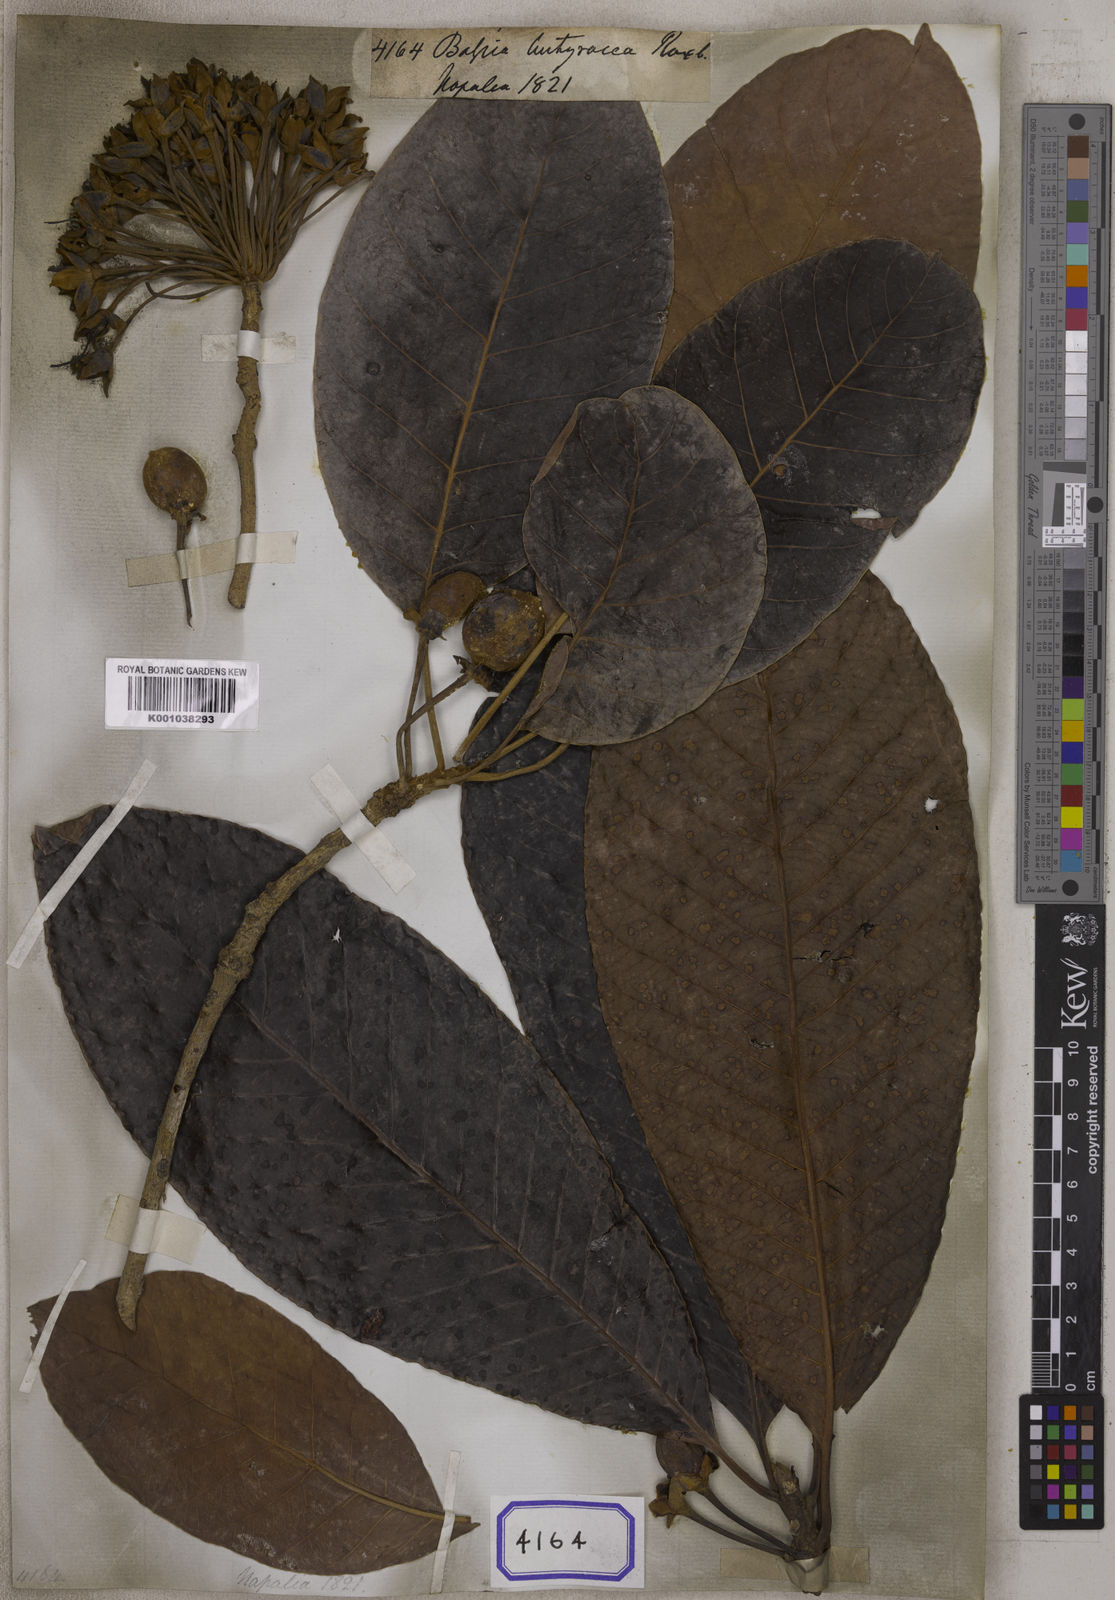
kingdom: Plantae
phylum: Tracheophyta
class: Magnoliopsida
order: Ericales
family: Sapotaceae
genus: Diploknema
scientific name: Diploknema butyracea
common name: Indian-buttertree
